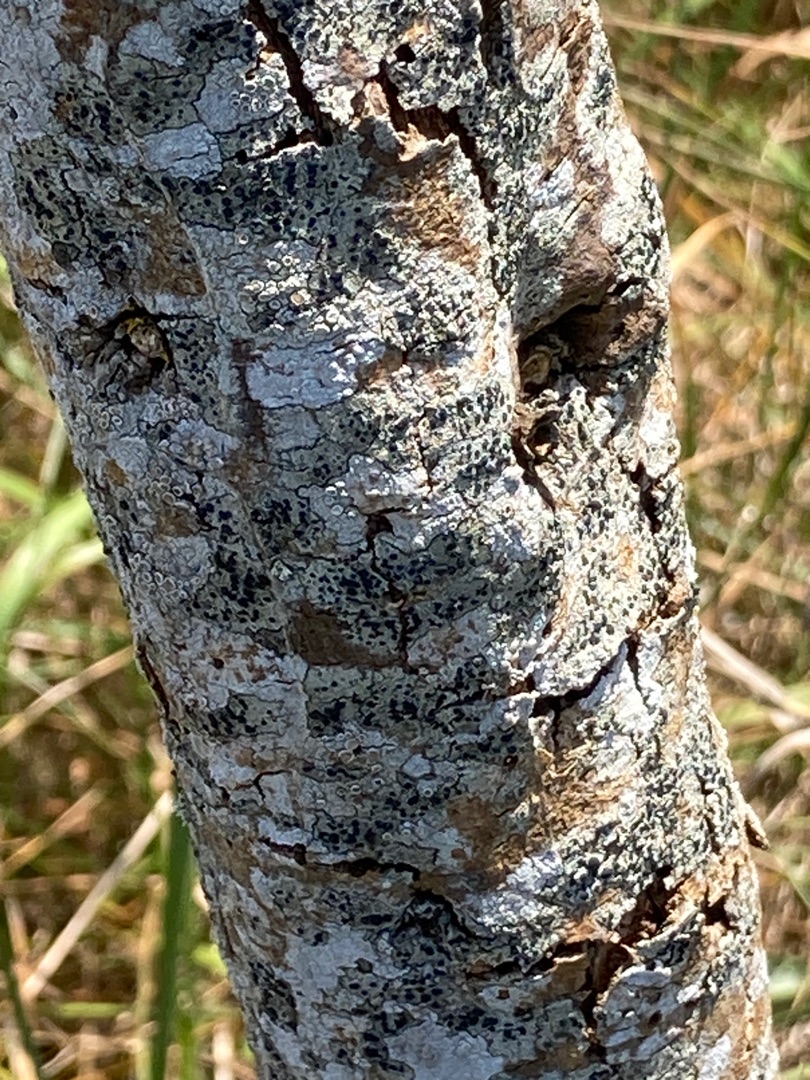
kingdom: Fungi
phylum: Ascomycota
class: Lecanoromycetes
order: Lecanorales
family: Lecanoraceae
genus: Lecidella
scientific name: Lecidella elaeochroma
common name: Grågrøn skivelav
